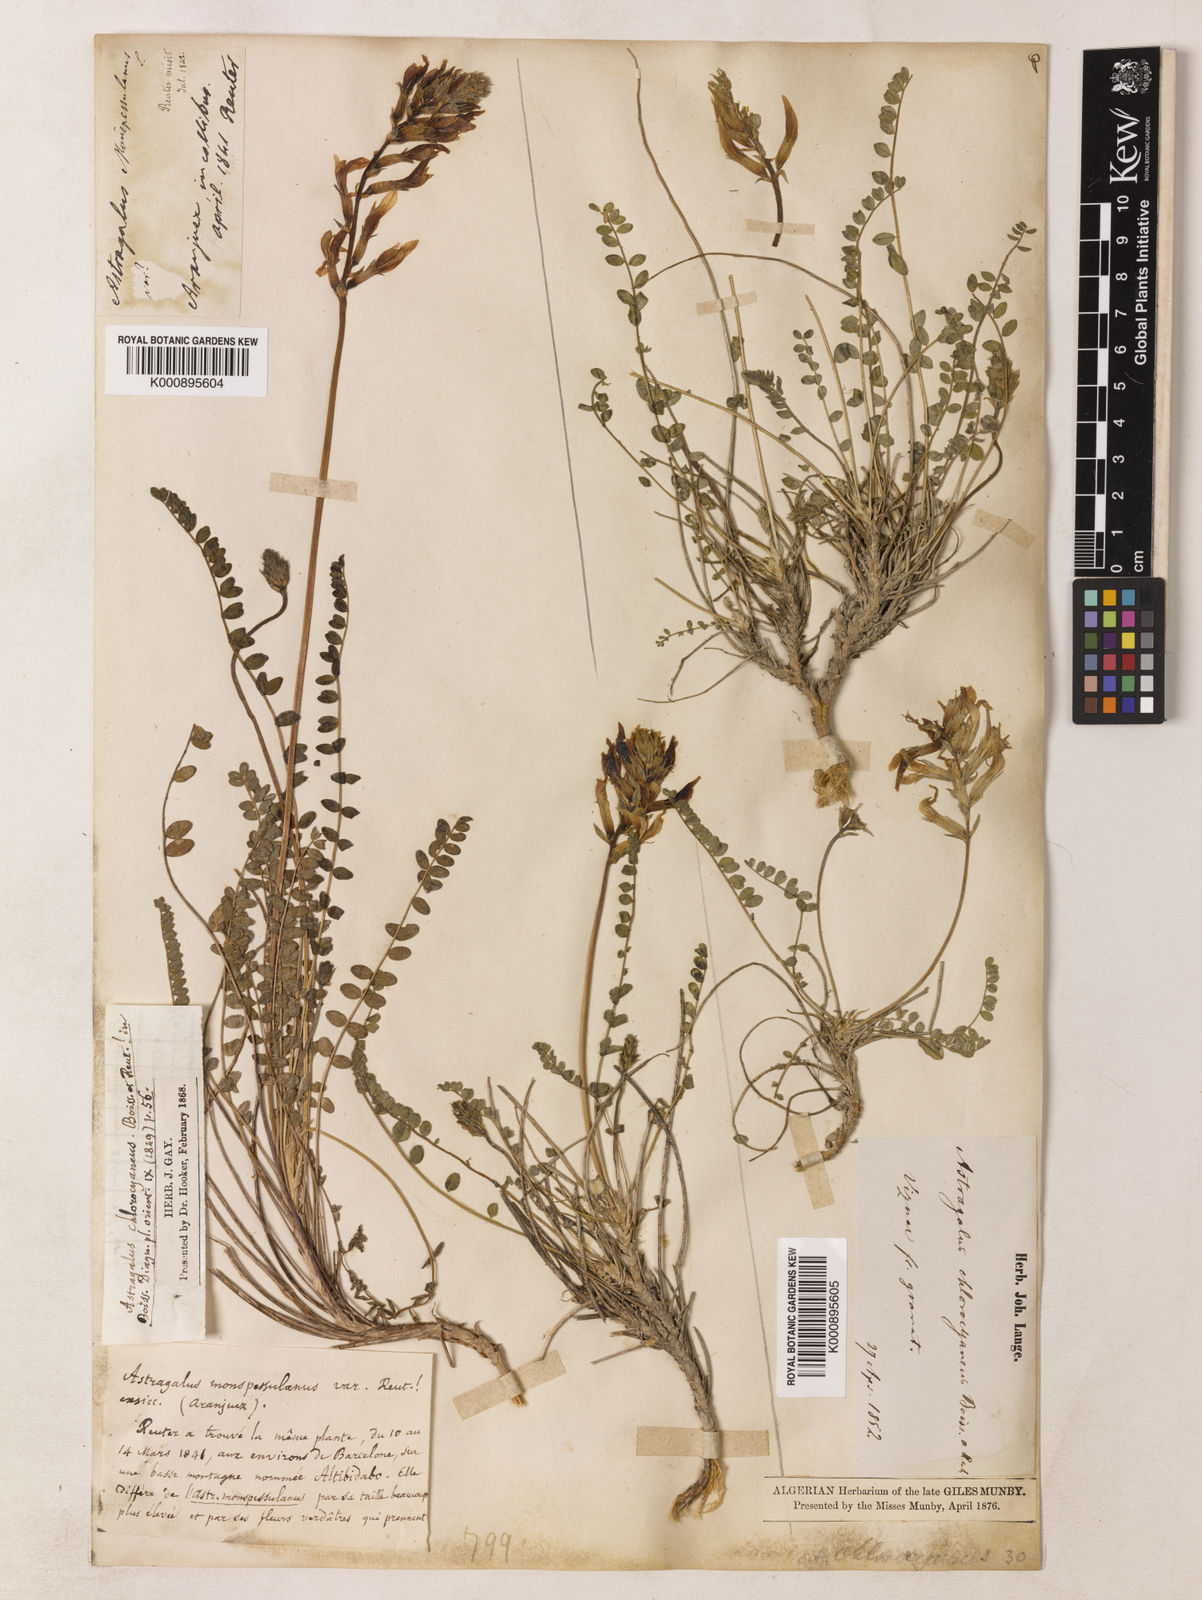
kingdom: Plantae
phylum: Tracheophyta
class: Magnoliopsida
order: Fabales
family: Fabaceae
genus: Astragalus
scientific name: Astragalus monspessulanus
